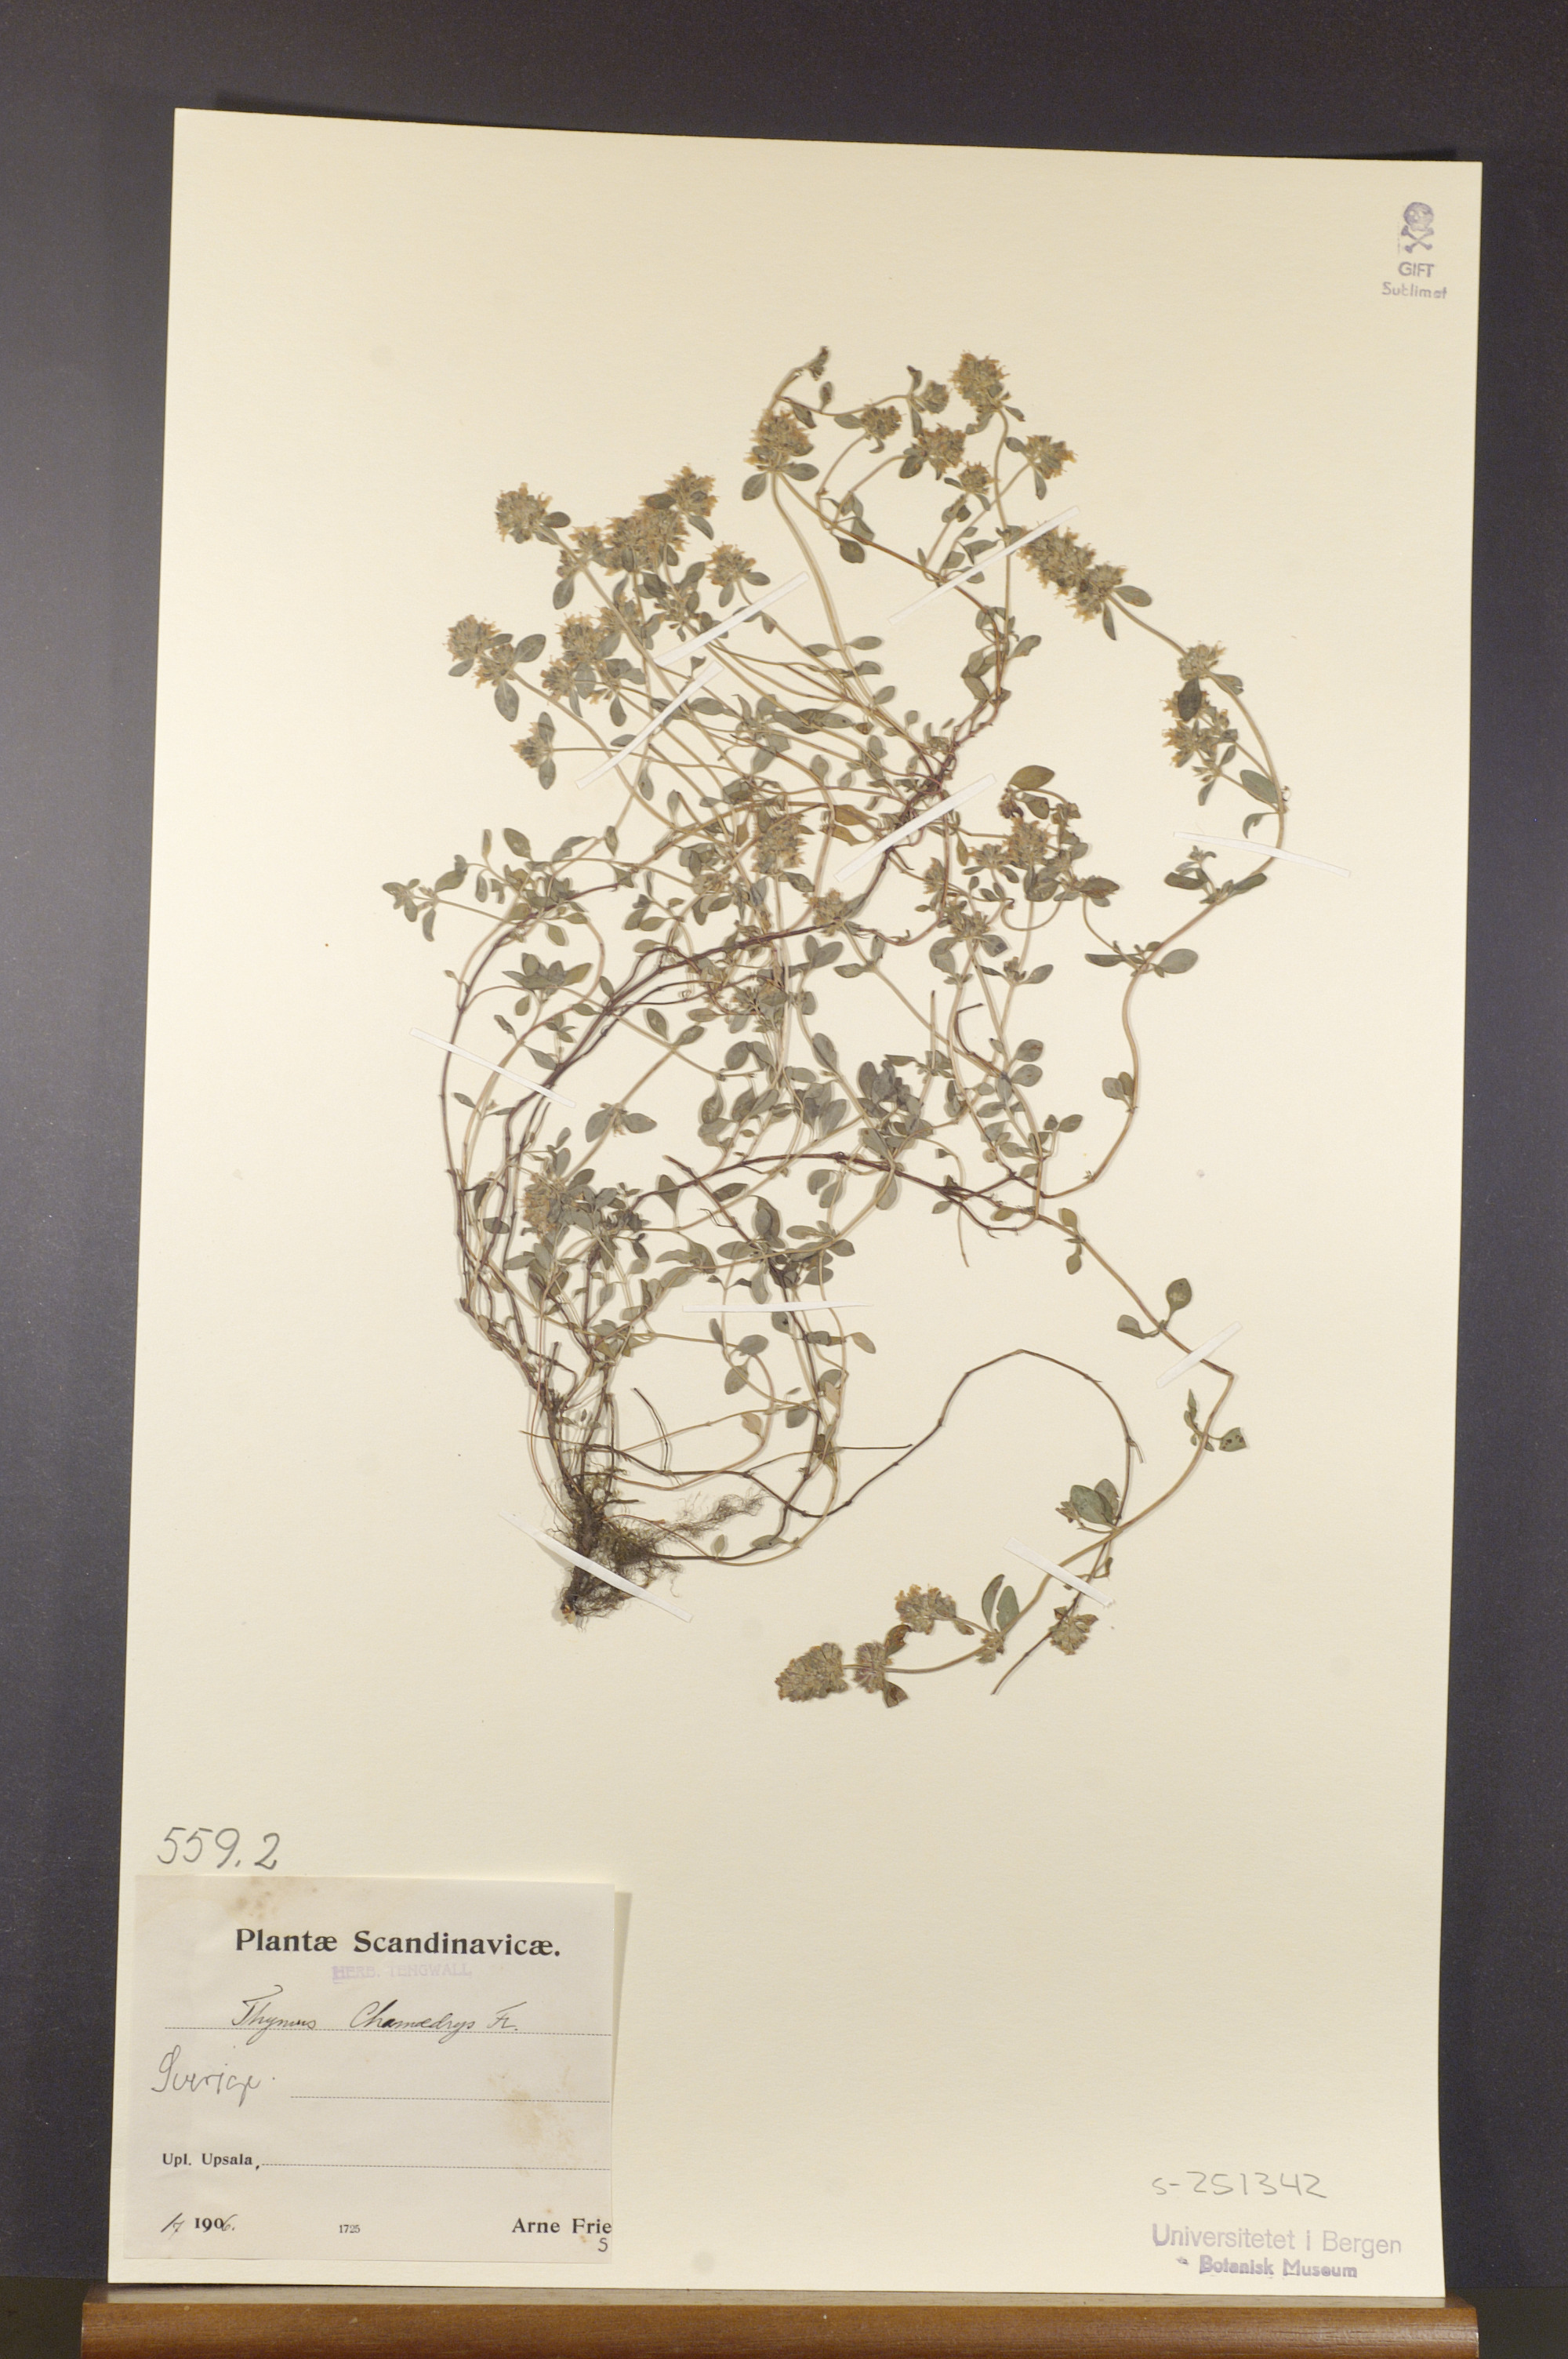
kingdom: Plantae
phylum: Tracheophyta
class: Magnoliopsida
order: Lamiales
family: Lamiaceae
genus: Thymus
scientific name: Thymus pulegioides
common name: Large thyme
